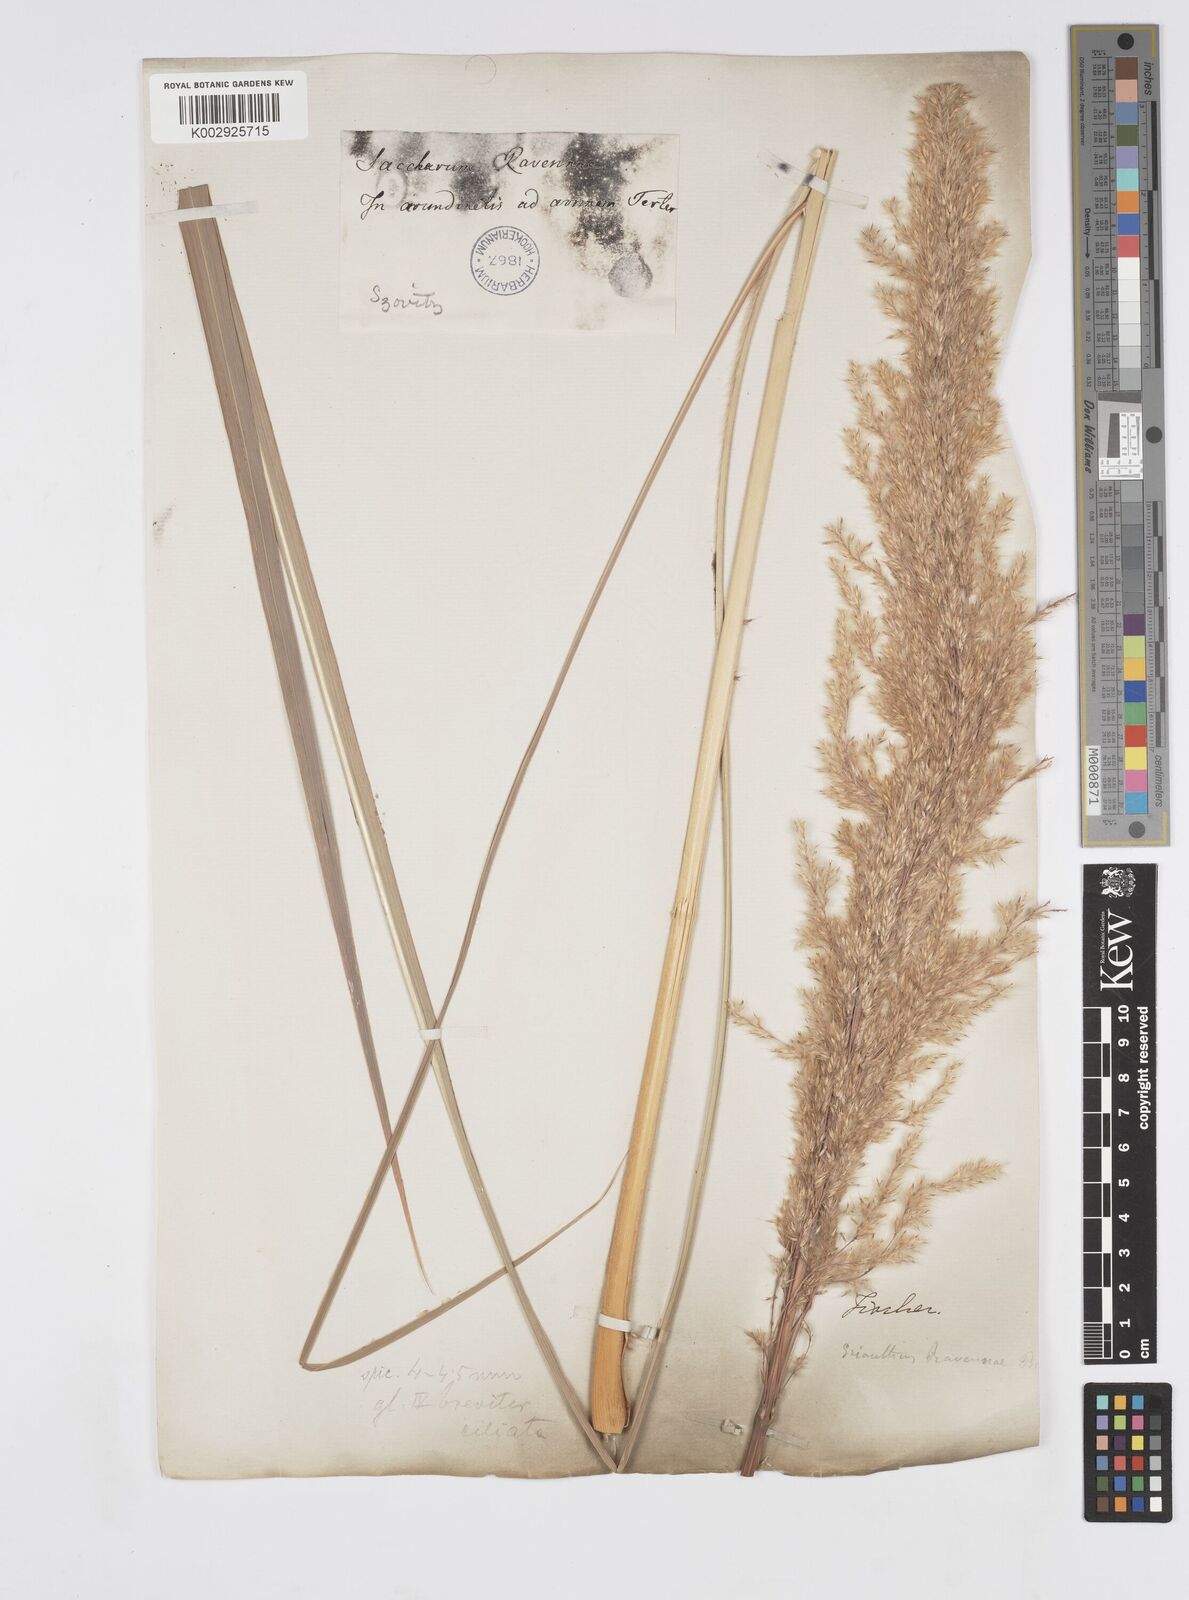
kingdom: Plantae
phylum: Tracheophyta
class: Liliopsida
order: Poales
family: Poaceae
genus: Tripidium
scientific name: Tripidium ravennae
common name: Ravenna grass
